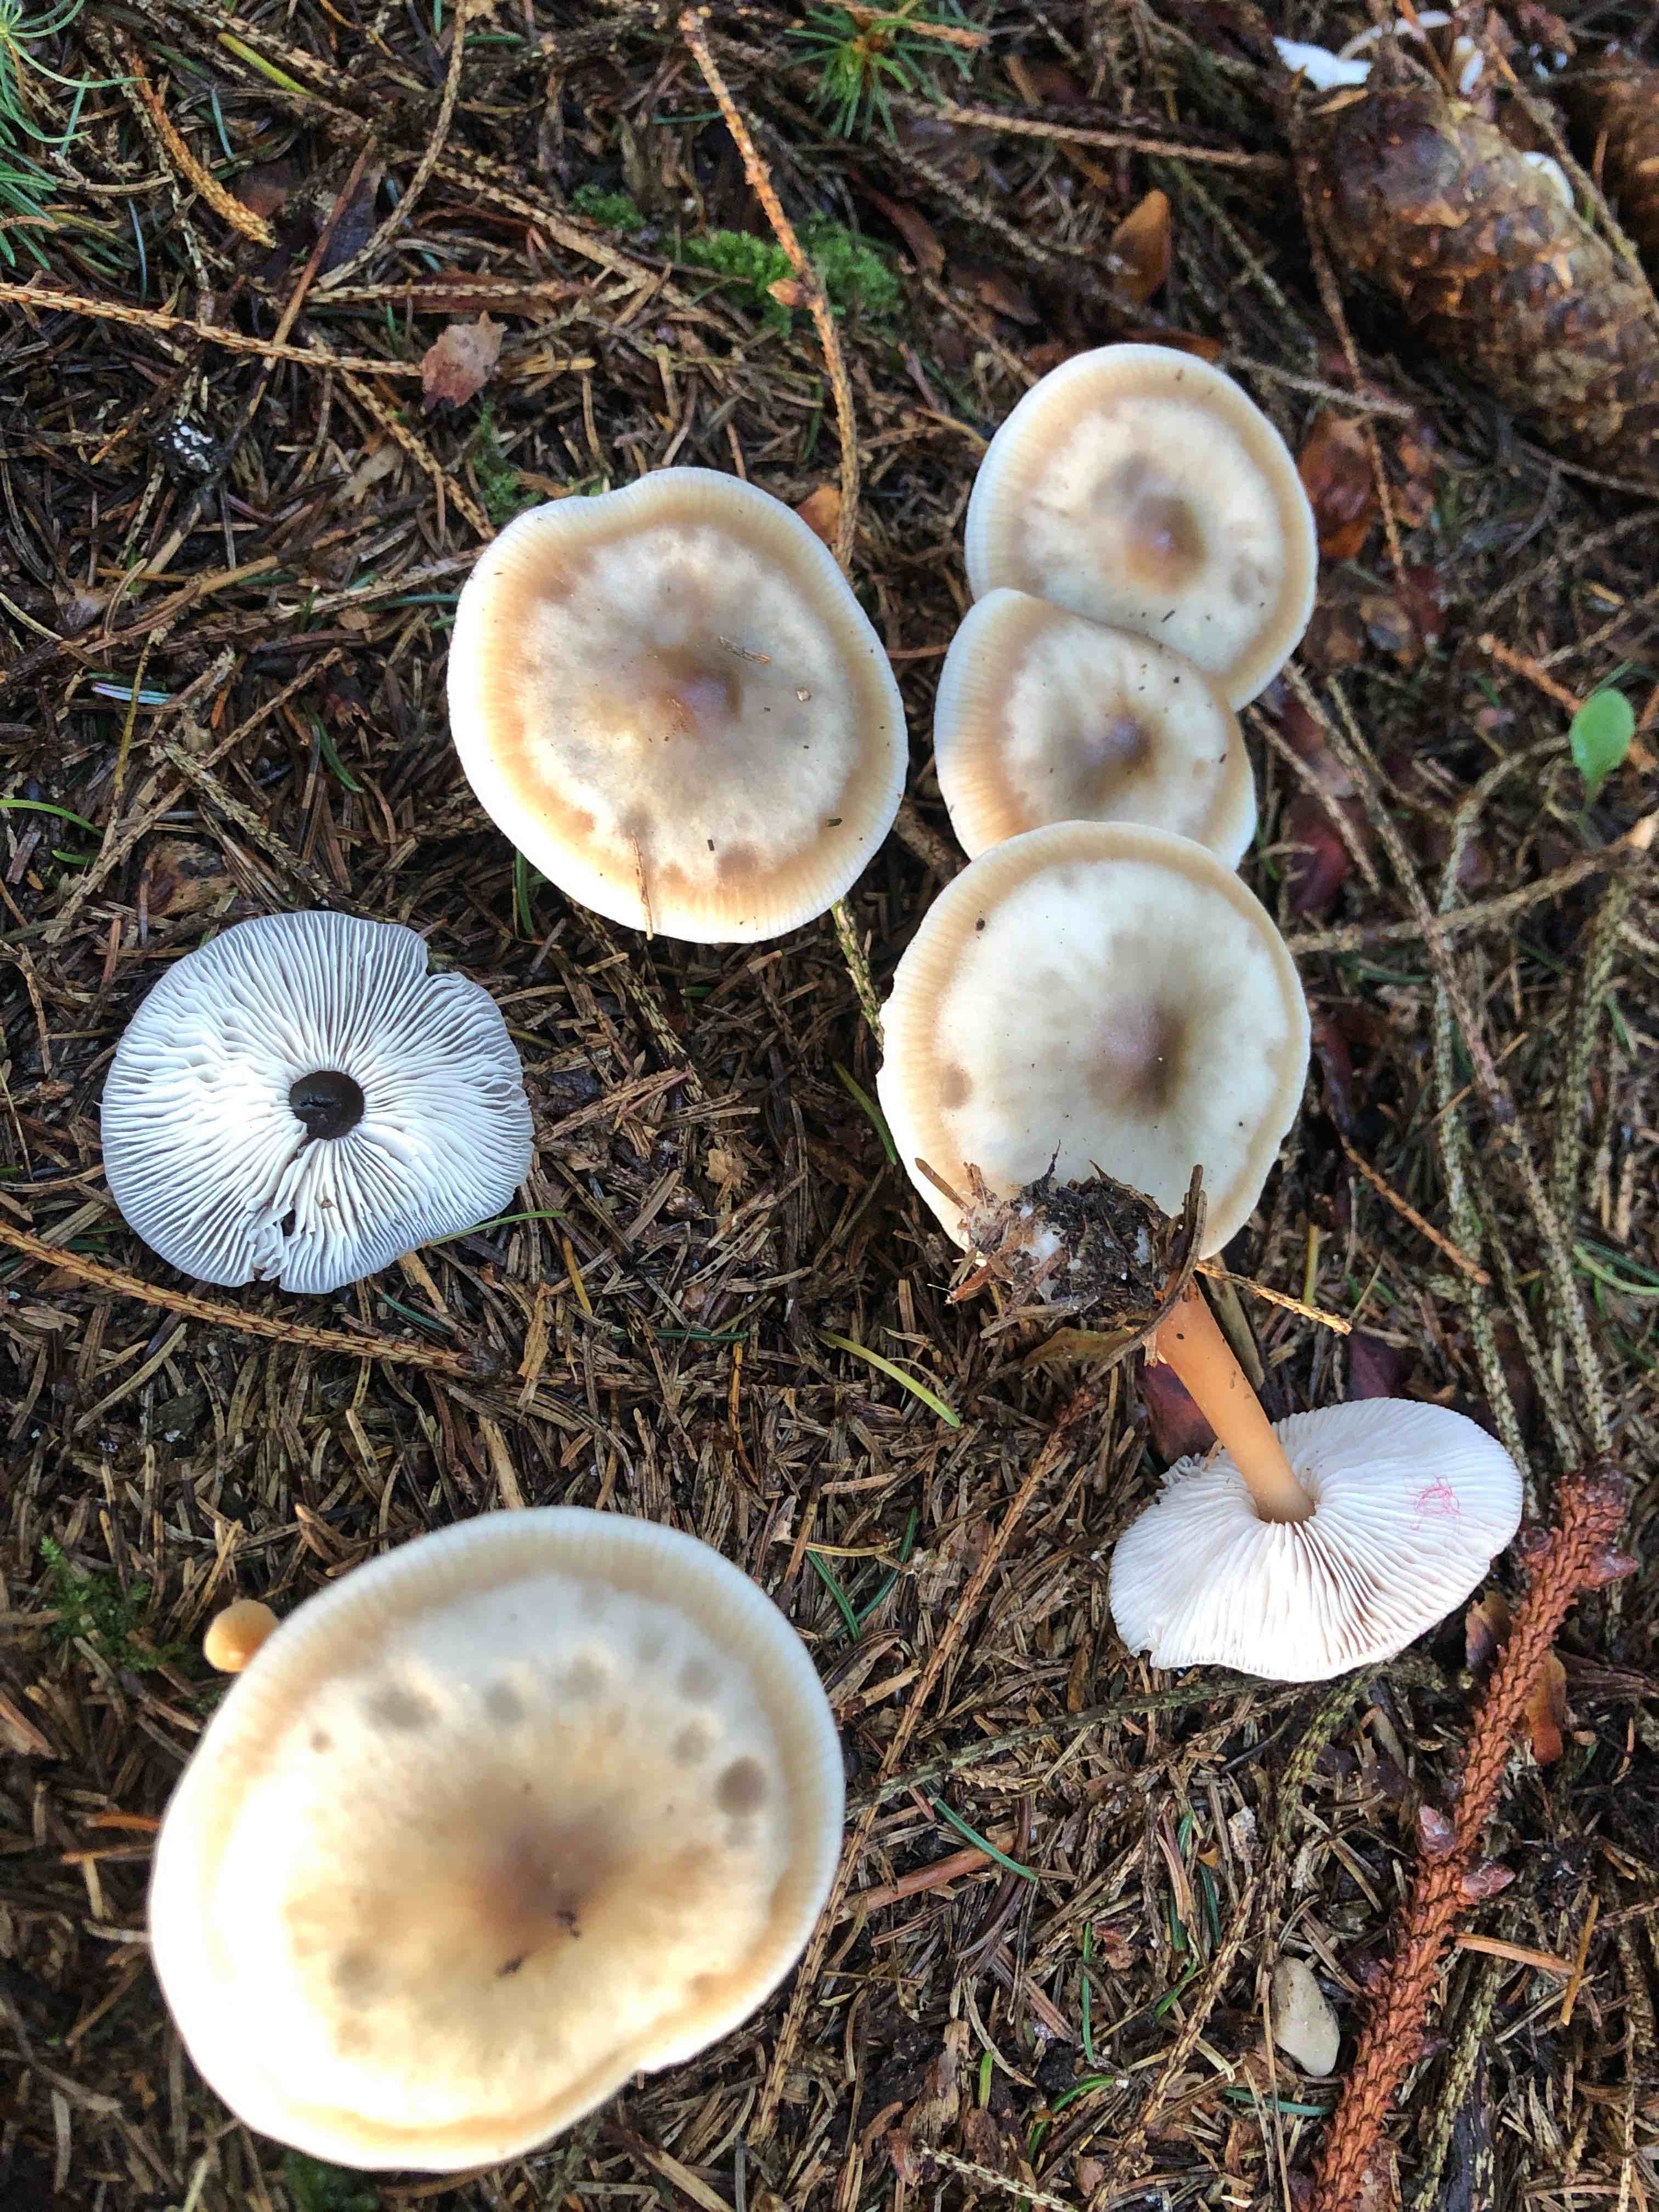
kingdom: Fungi
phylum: Basidiomycota
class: Agaricomycetes
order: Agaricales
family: Omphalotaceae
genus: Rhodocollybia
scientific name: Rhodocollybia asema
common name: horngrå fladhat
